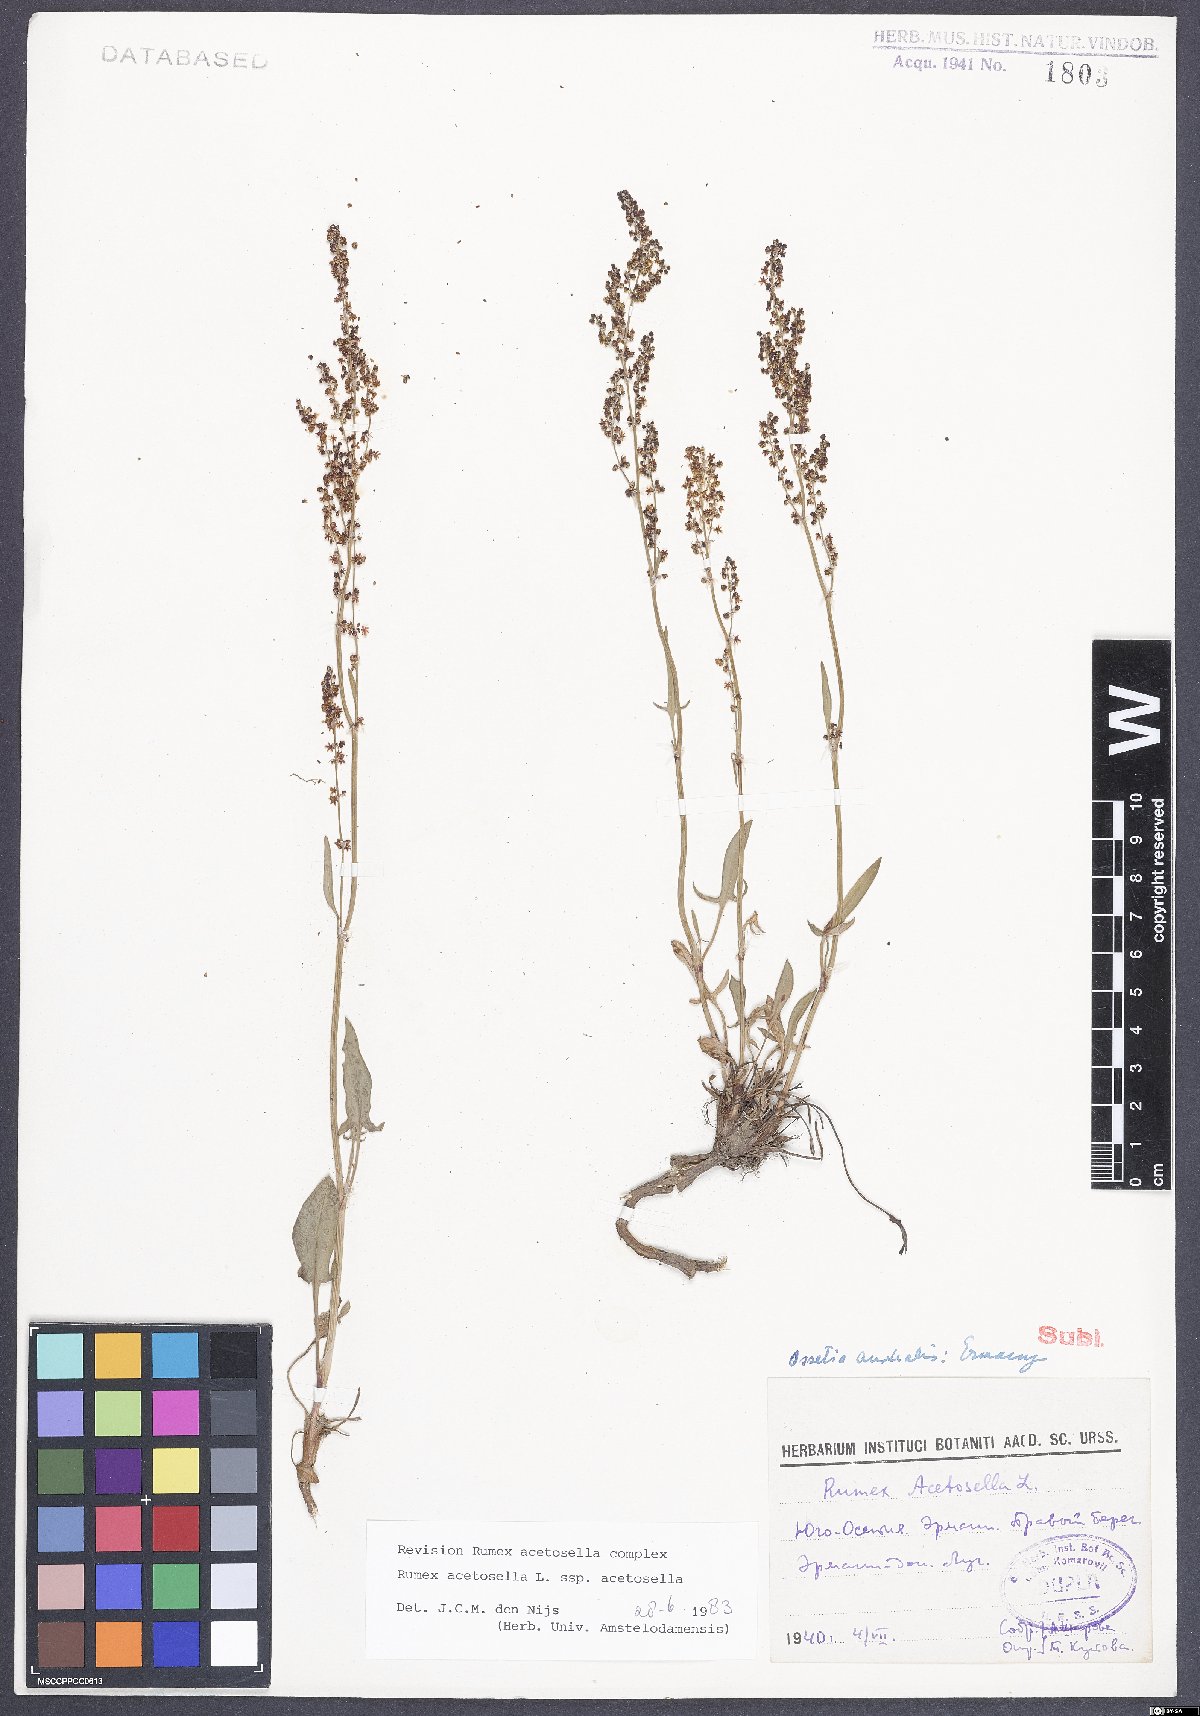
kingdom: Plantae
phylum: Tracheophyta
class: Magnoliopsida
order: Caryophyllales
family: Polygonaceae
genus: Rumex
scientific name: Rumex acetosella
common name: Common sheep sorrel
